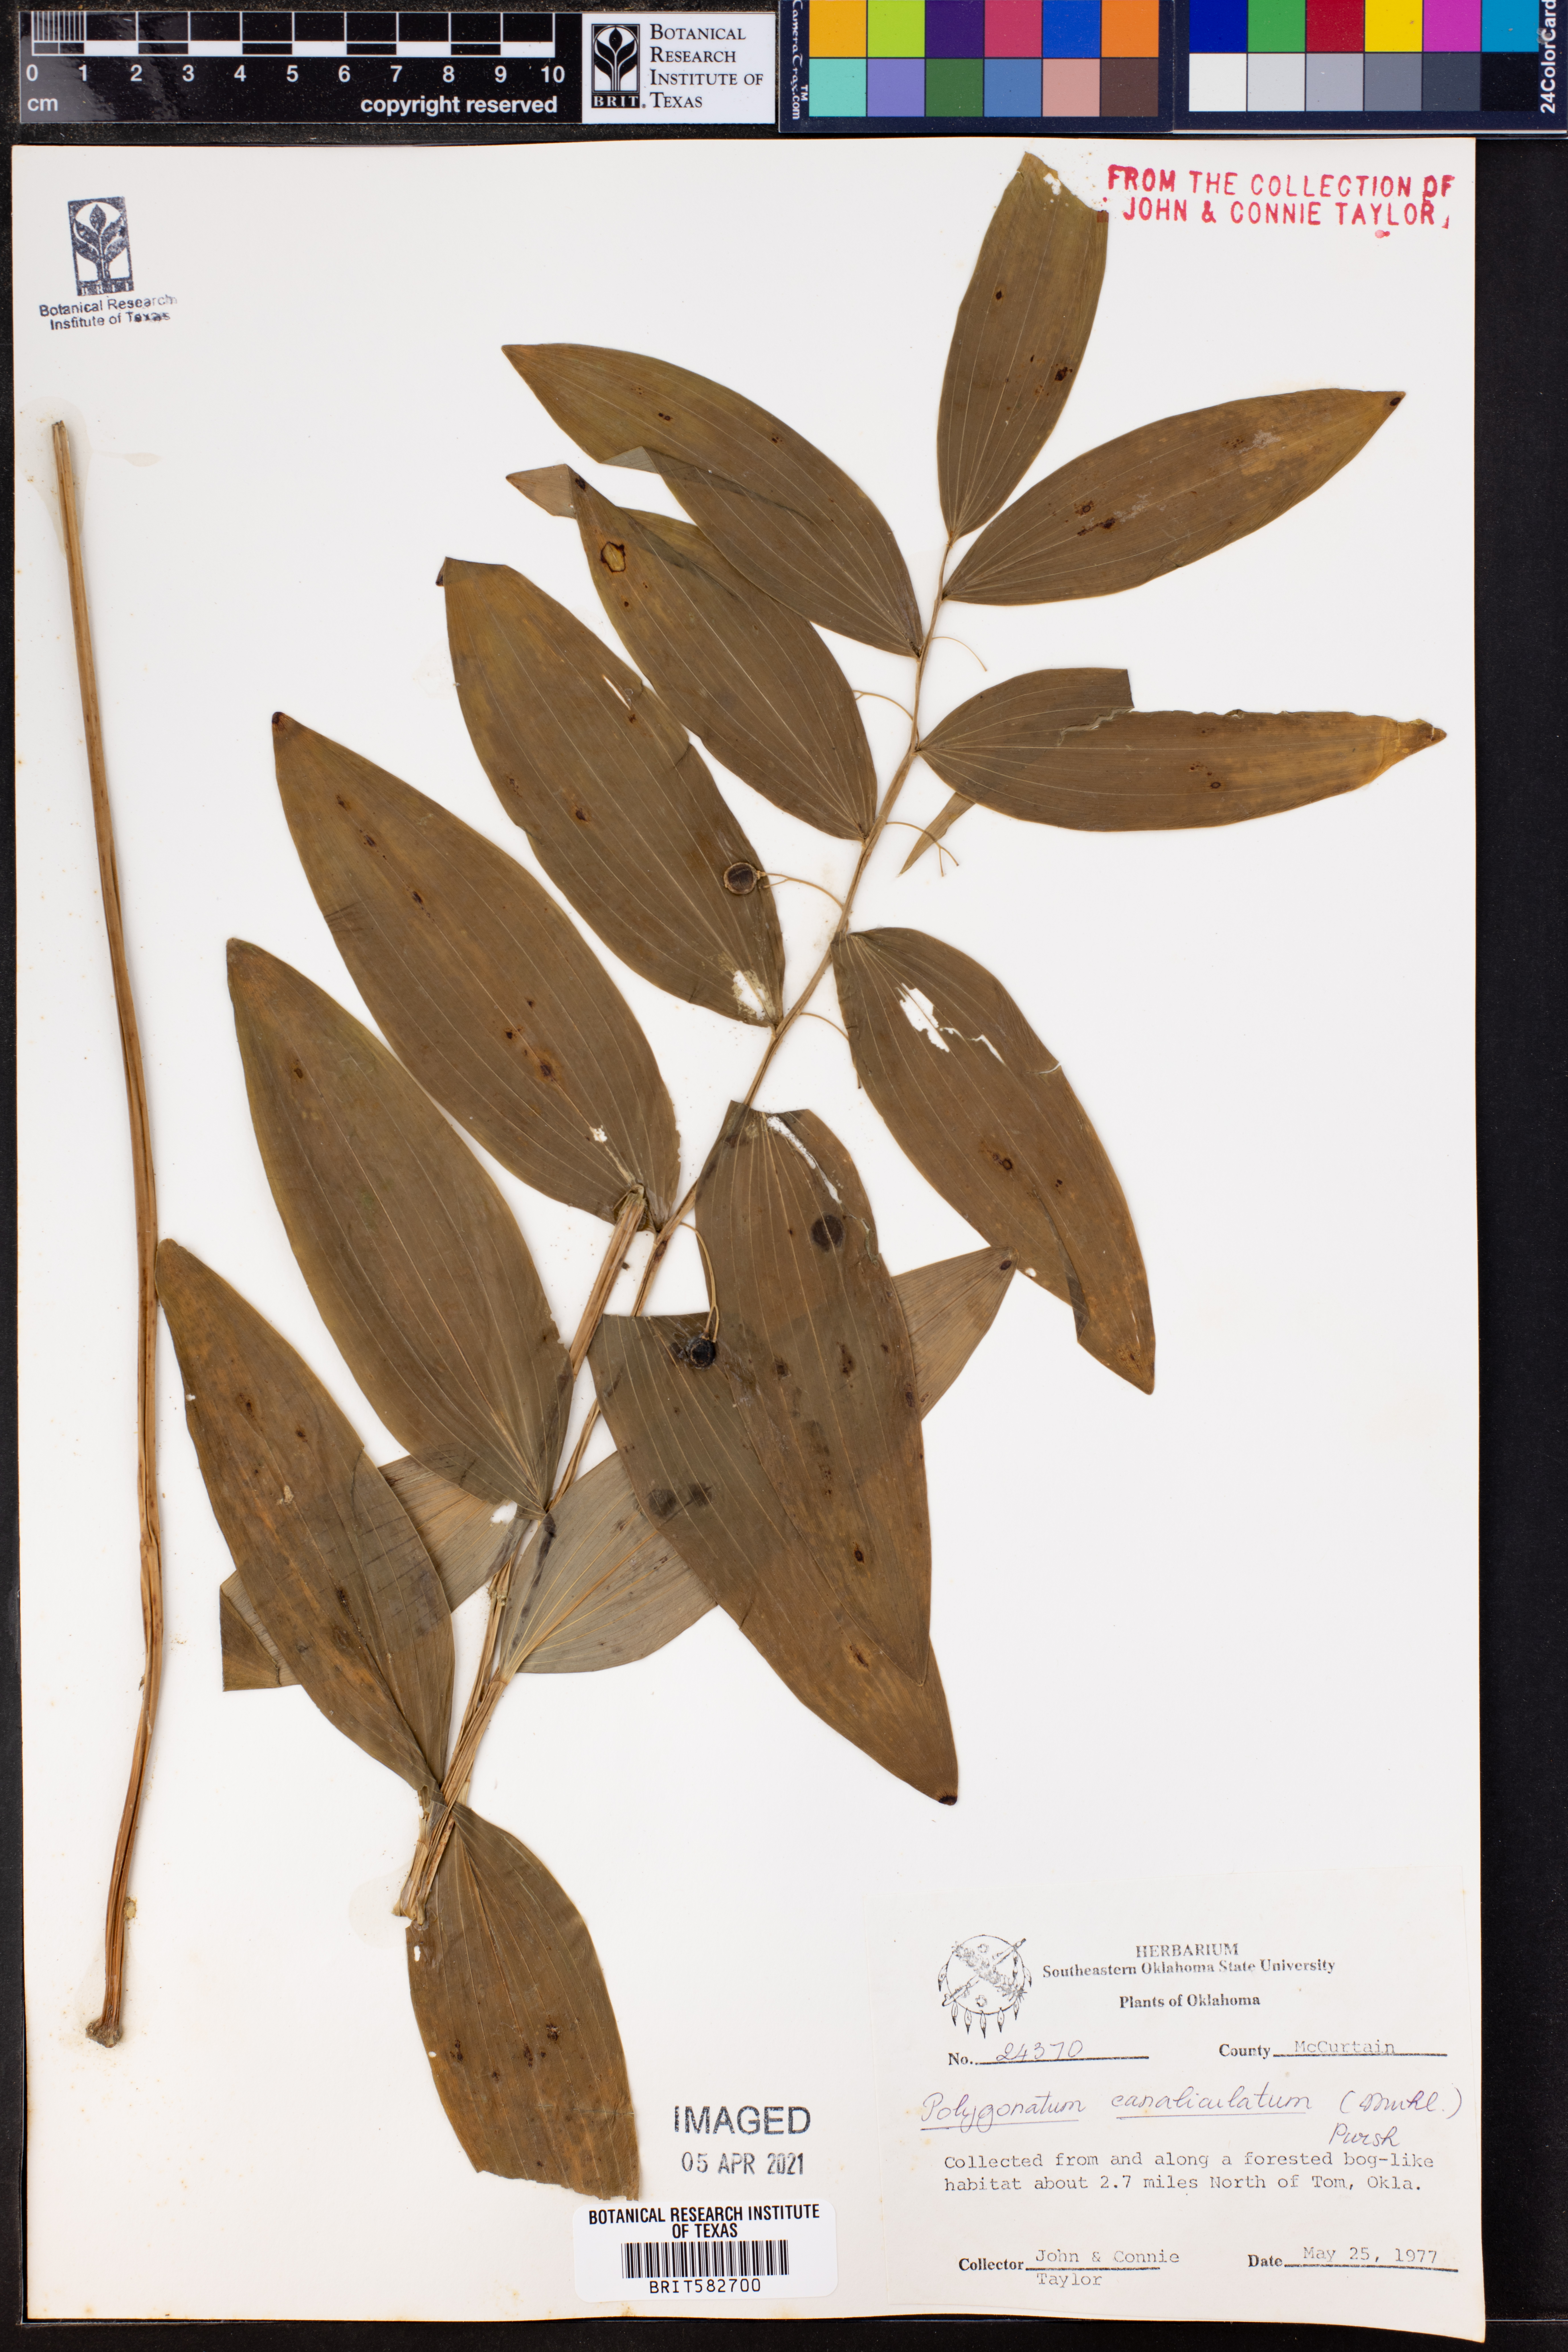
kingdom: Plantae
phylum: Tracheophyta
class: Liliopsida
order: Asparagales
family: Asparagaceae
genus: Polygonatum
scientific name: Polygonatum biflorum
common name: American solomon's-seal
